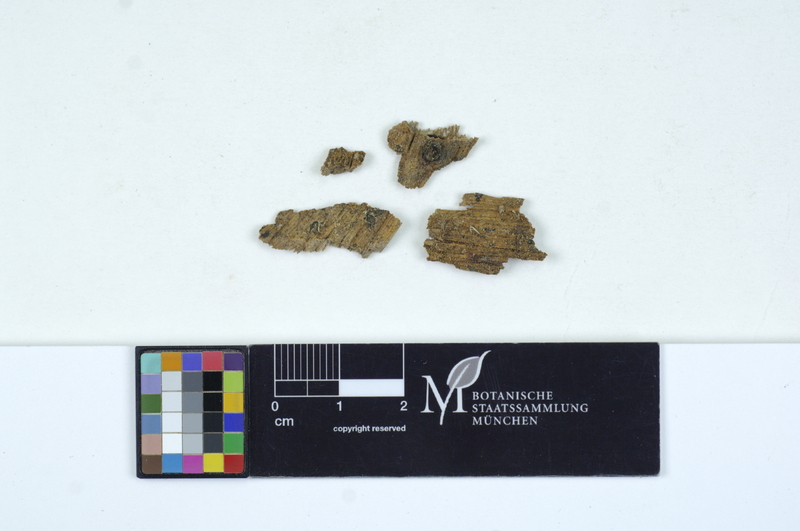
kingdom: Fungi
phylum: Basidiomycota
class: Agaricomycetes
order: Auriculariales
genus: Stypella
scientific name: Stypella subgelatinosa
